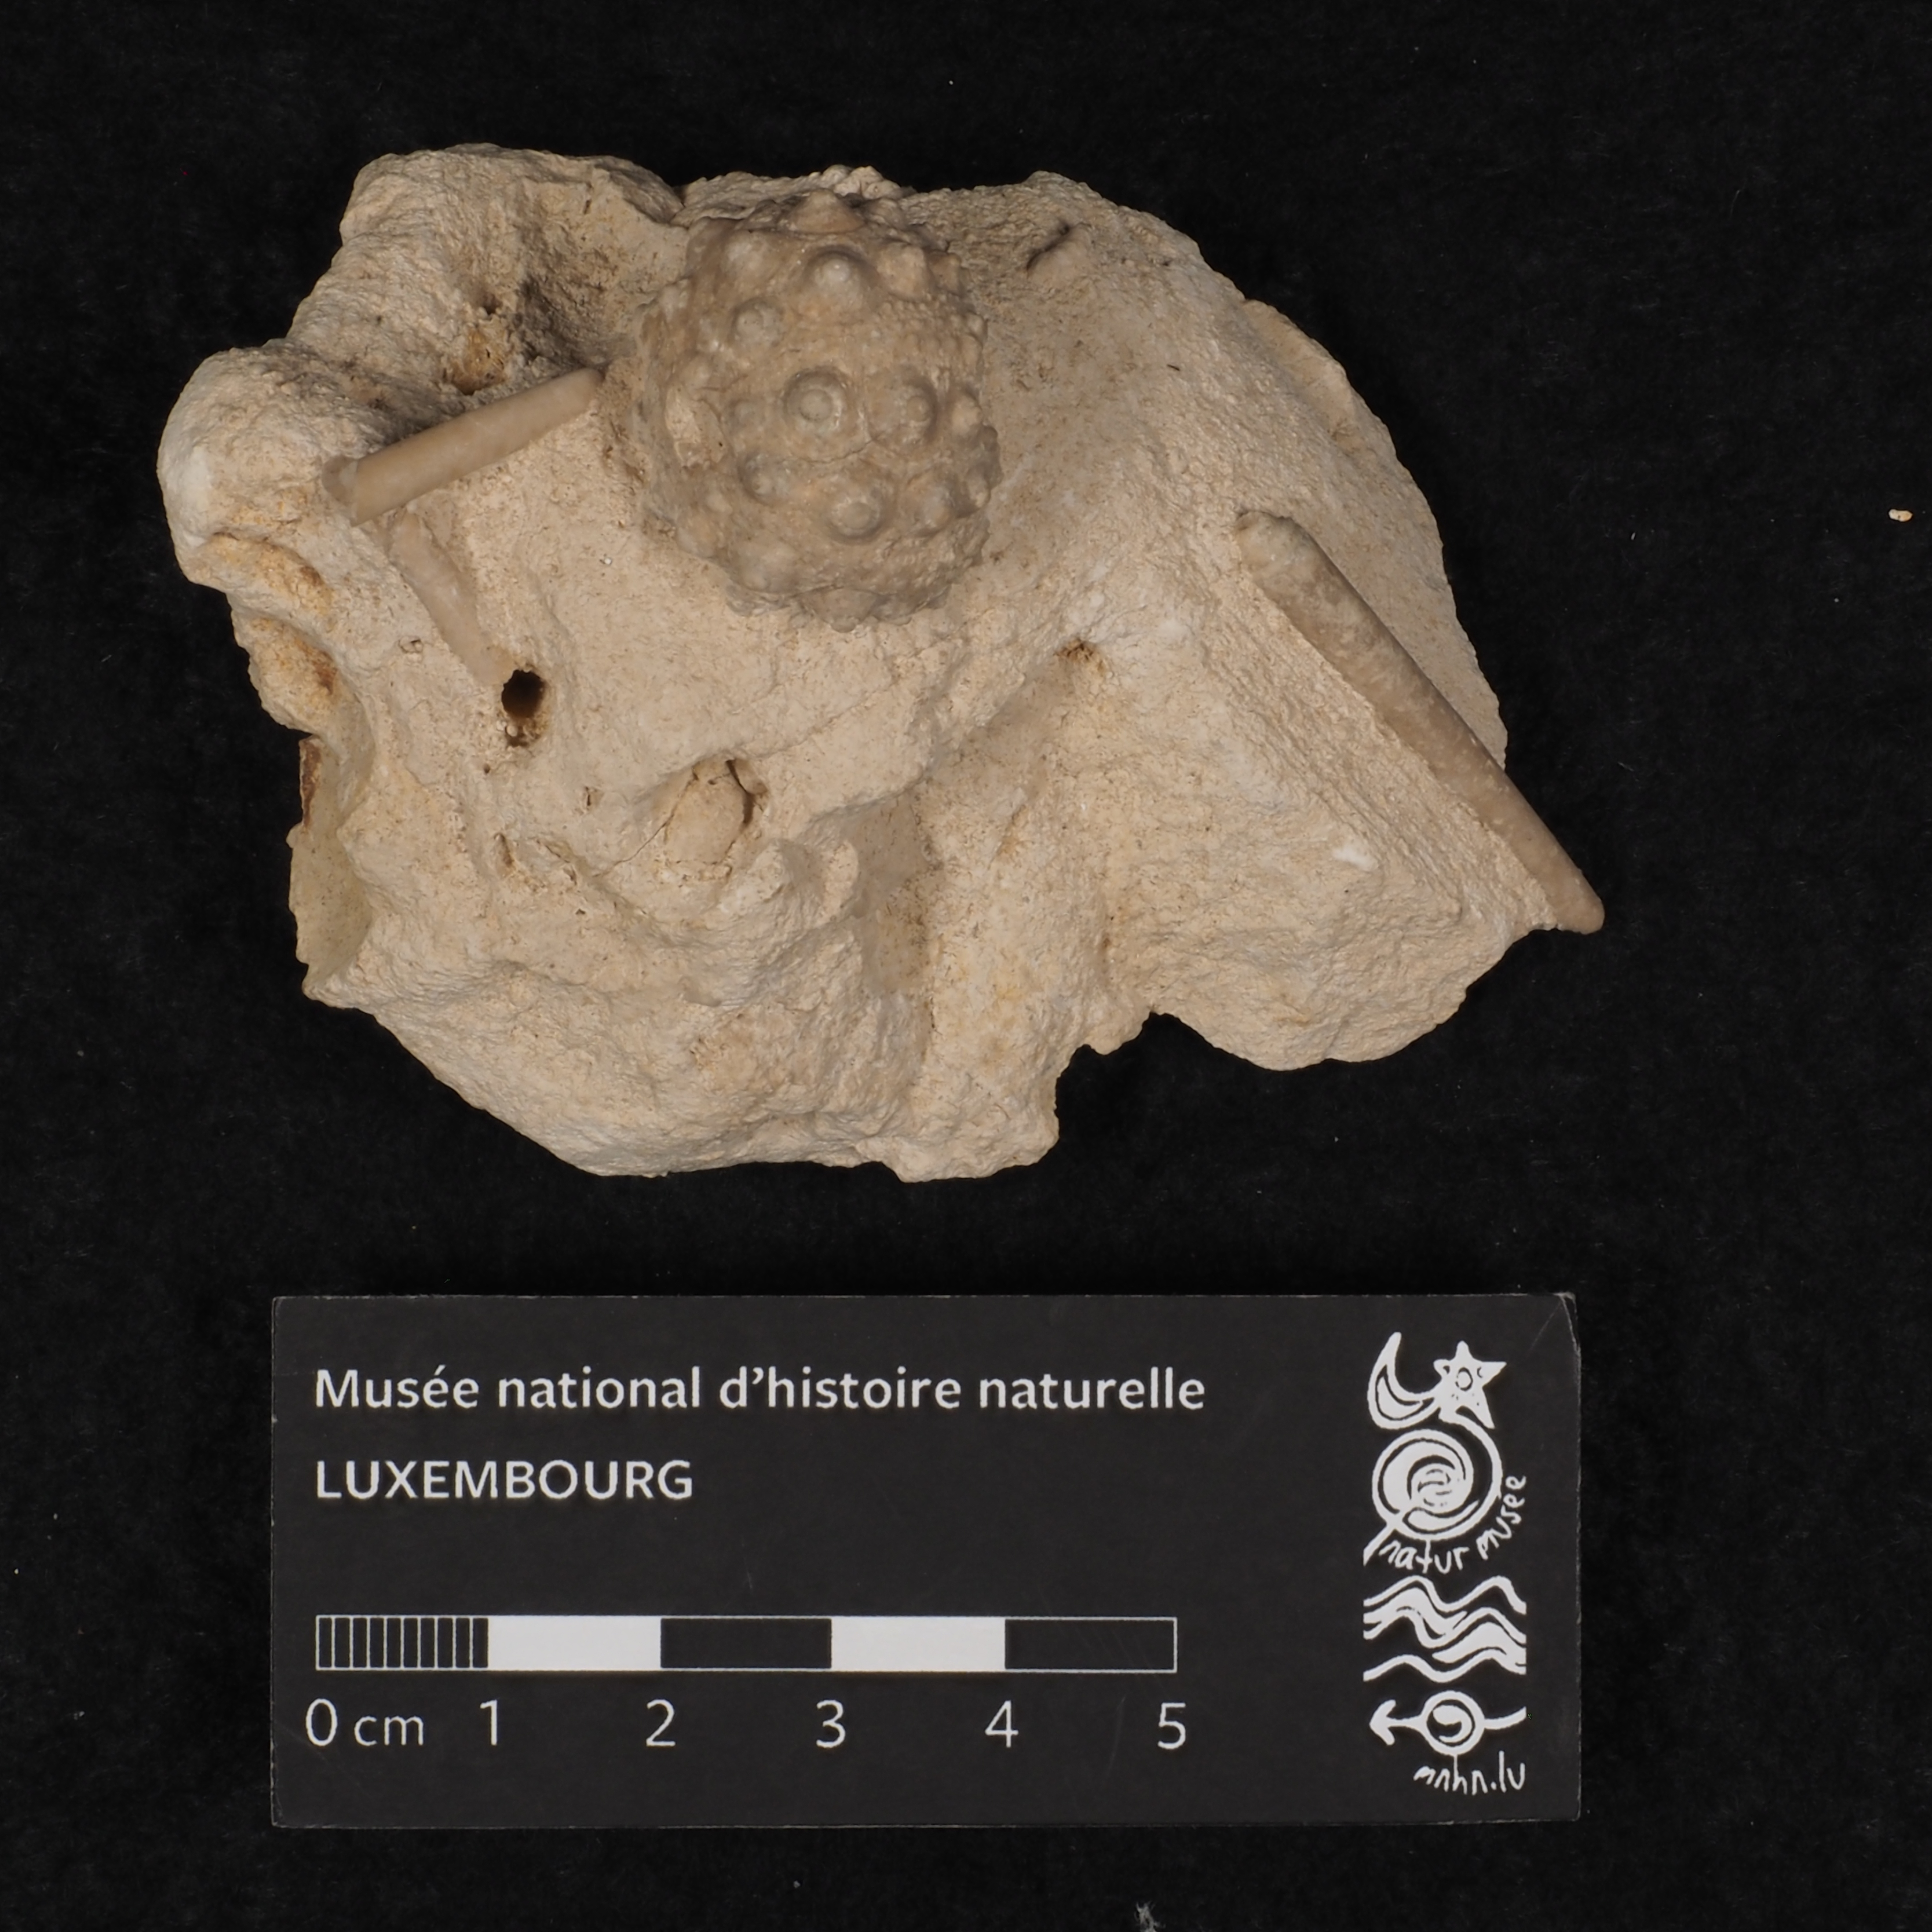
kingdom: Animalia
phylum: Echinodermata
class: Echinoidea
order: Cidaroida
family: Polycidaridae
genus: Paracidaris
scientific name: Paracidaris Cidaris florigemma
